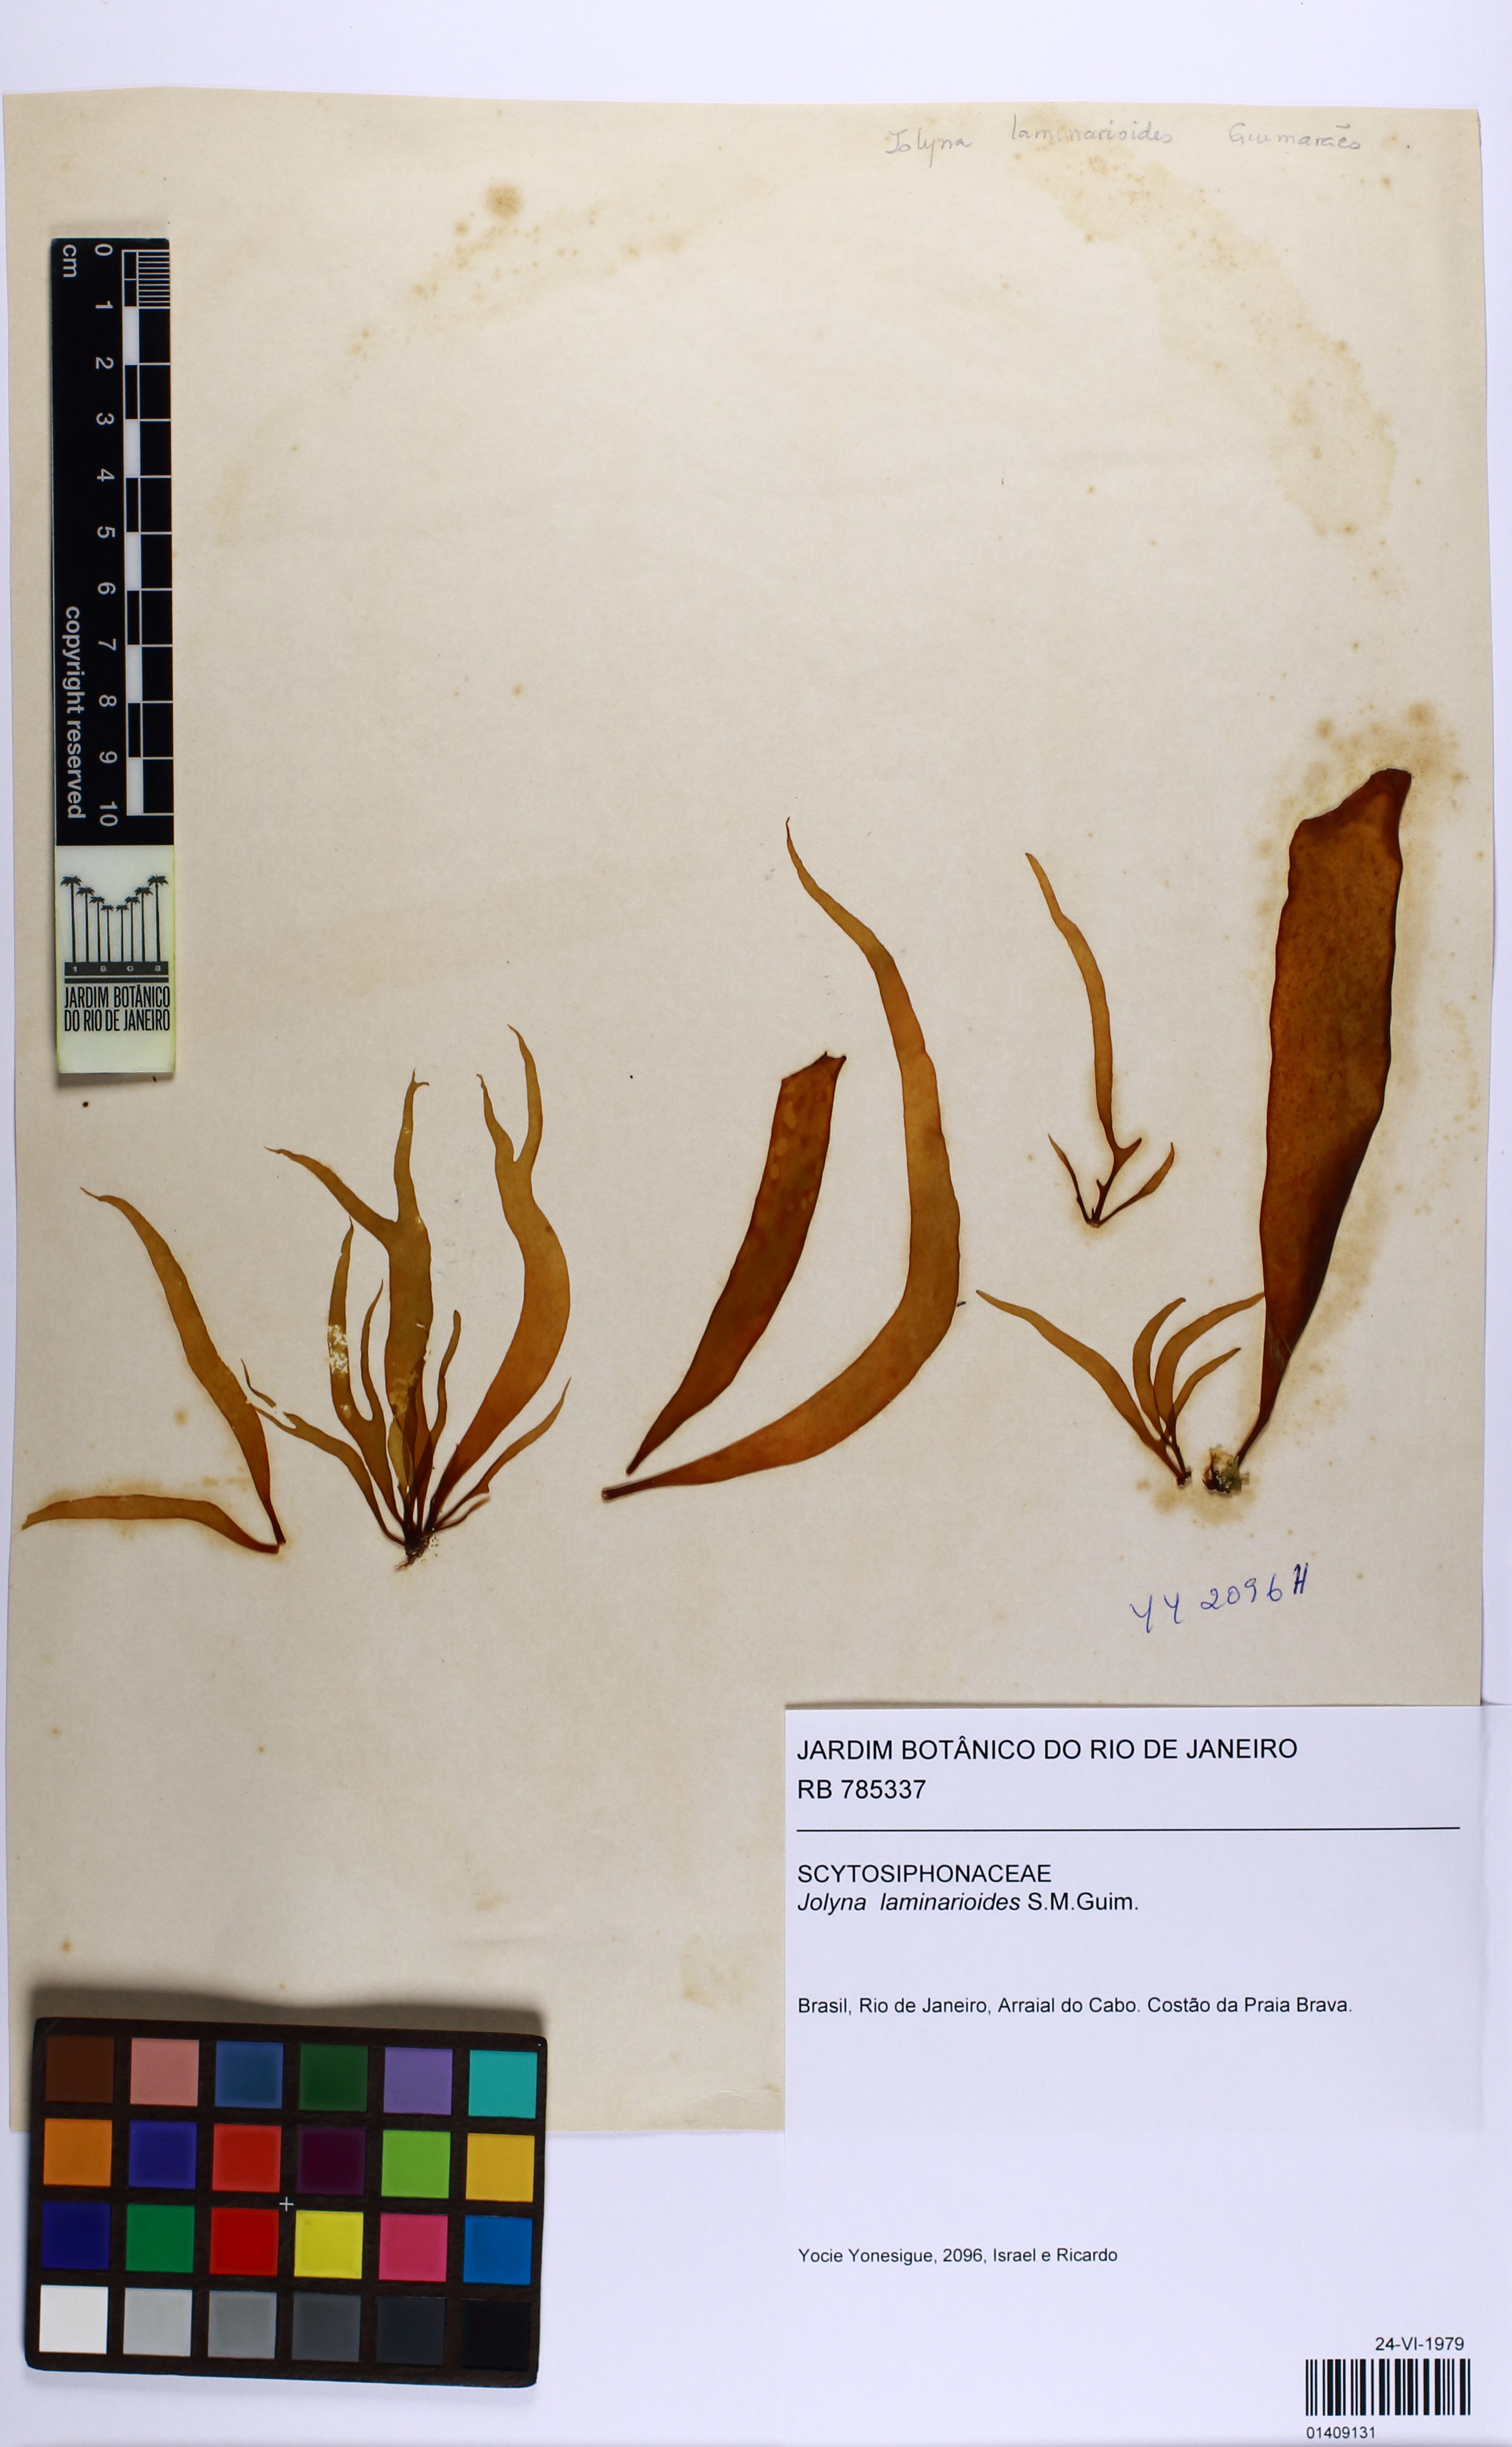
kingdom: Chromista
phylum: Ochrophyta
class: Phaeophyceae
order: Scytosiphonales
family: Scytosiphonaceae
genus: Jolyna
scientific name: Jolyna laminarioides
